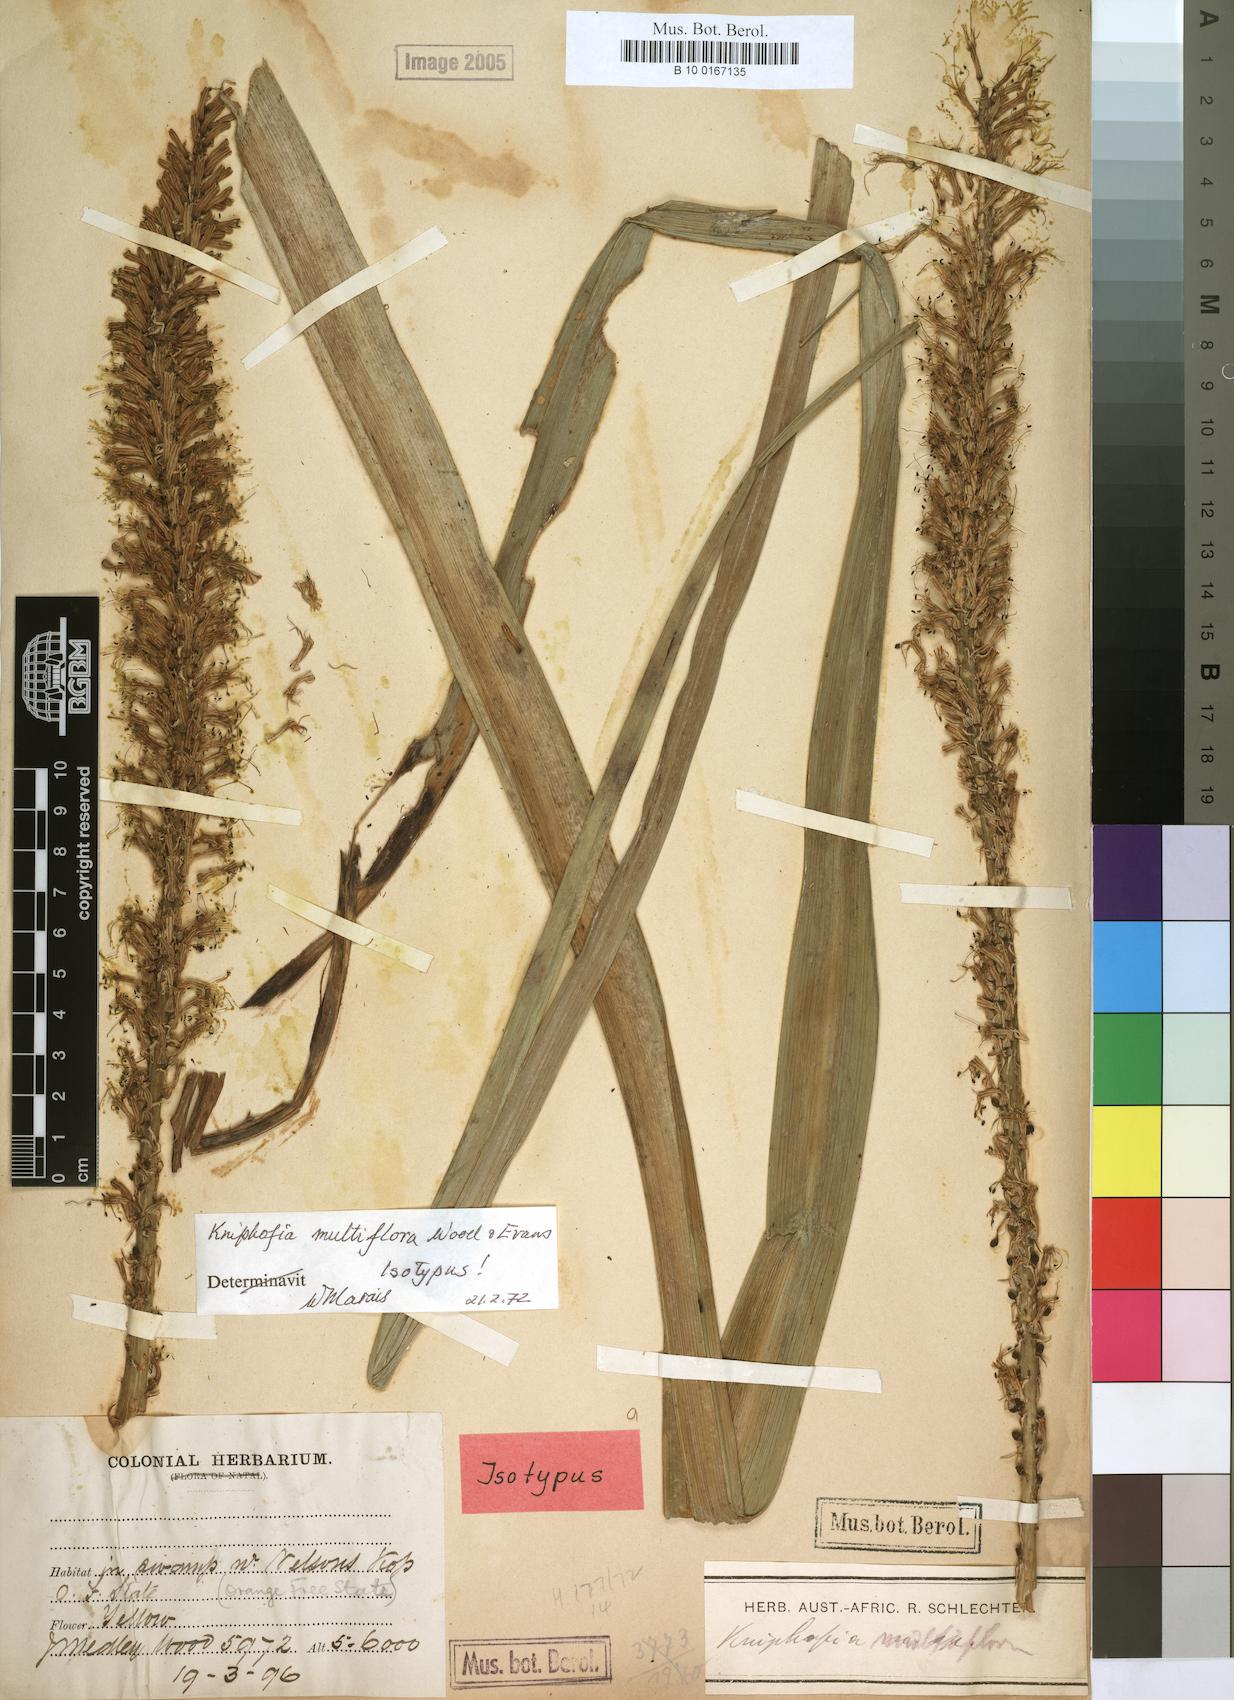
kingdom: Plantae
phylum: Tracheophyta
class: Liliopsida
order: Asparagales
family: Asphodelaceae
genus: Kniphofia
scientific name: Kniphofia multiflora
